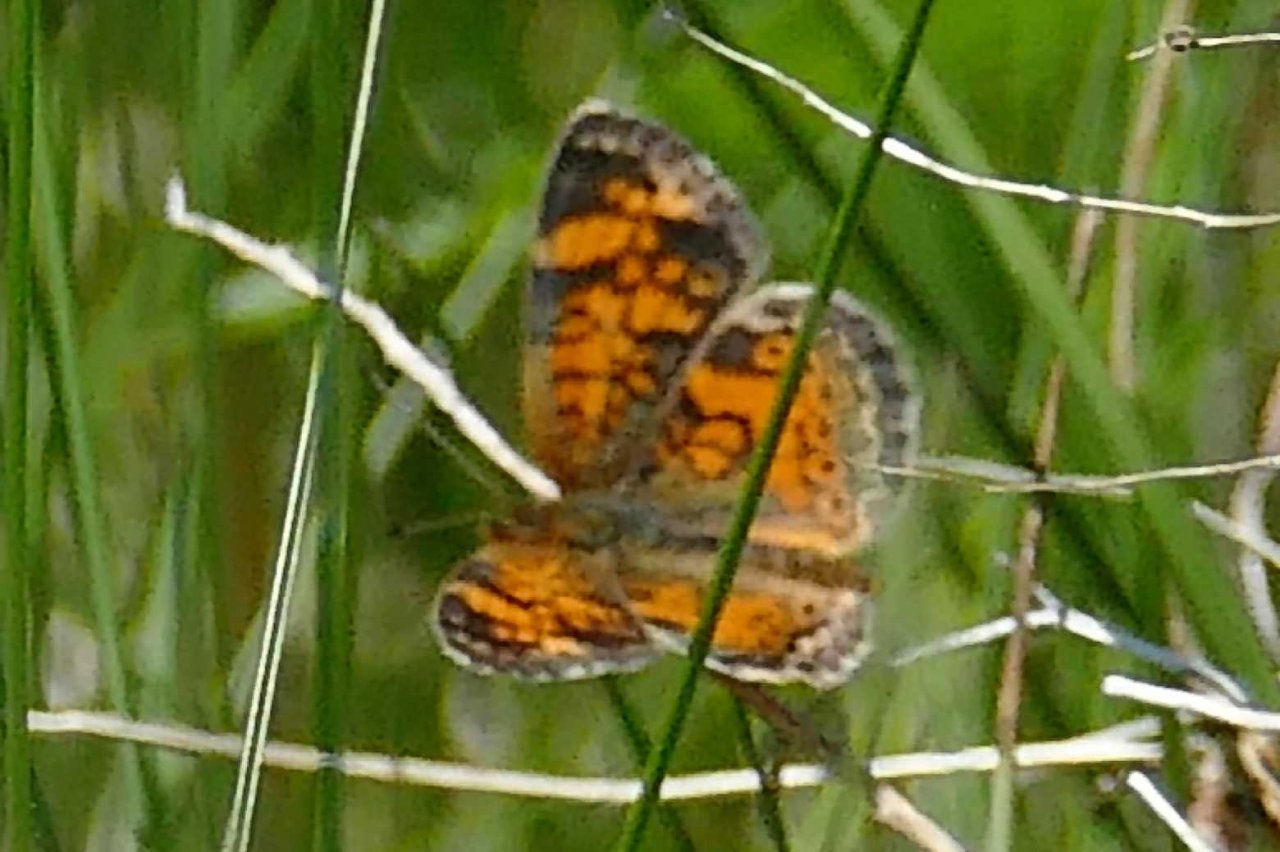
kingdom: Animalia
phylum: Arthropoda
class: Insecta
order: Lepidoptera
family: Nymphalidae
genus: Phyciodes
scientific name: Phyciodes tharos
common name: Pearl Crescent
